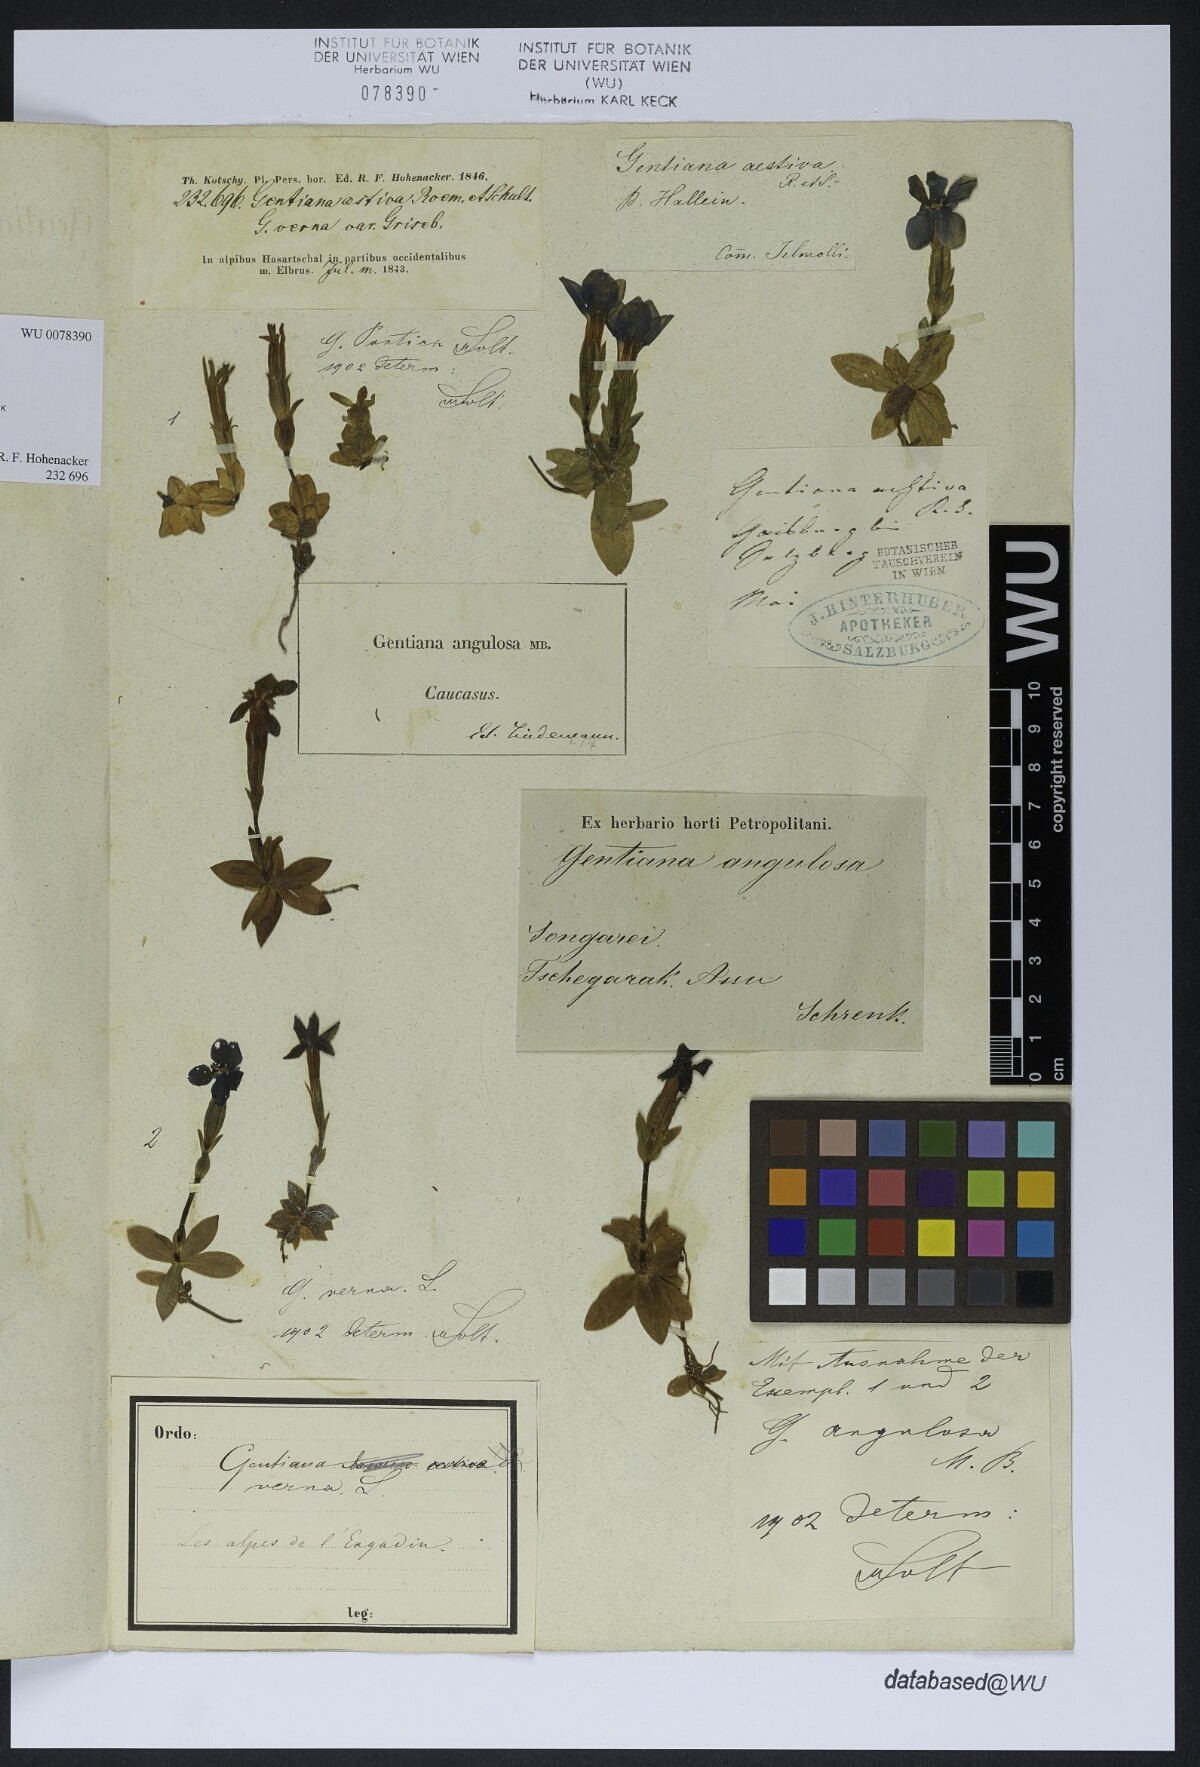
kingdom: Plantae
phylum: Tracheophyta
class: Magnoliopsida
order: Gentianales
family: Gentianaceae
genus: Gentiana
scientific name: Gentiana verna
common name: Spring gentian
